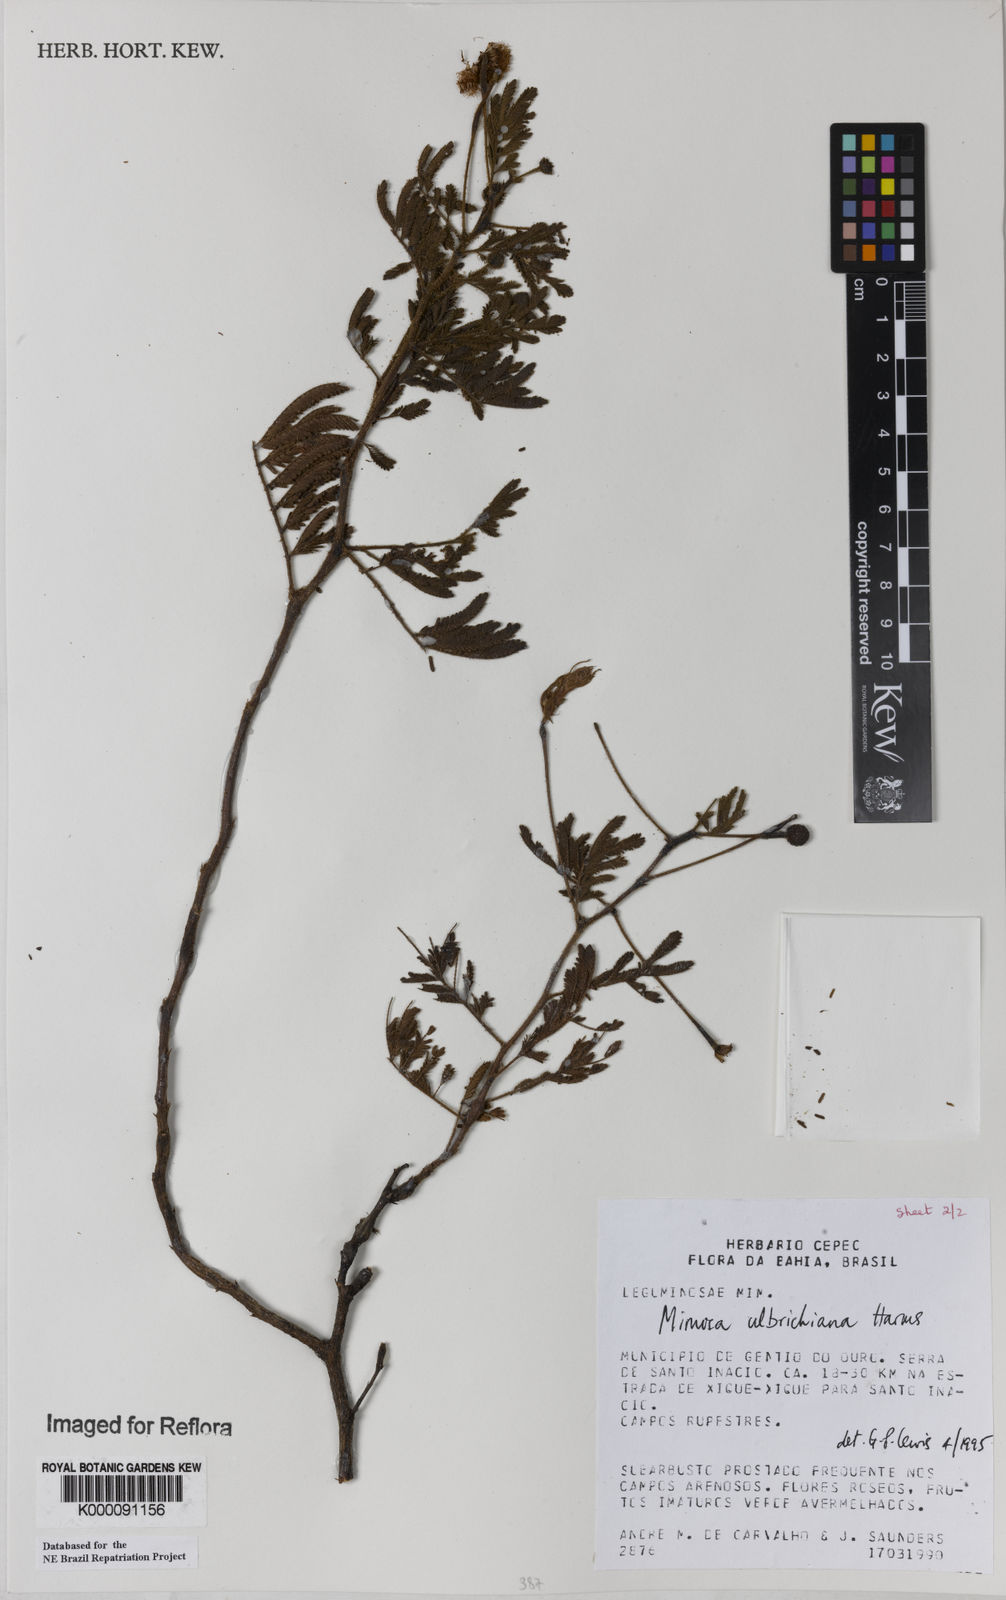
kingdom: Plantae
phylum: Tracheophyta
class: Magnoliopsida
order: Fabales
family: Fabaceae
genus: Mimosa
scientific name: Mimosa ulbrichiana
